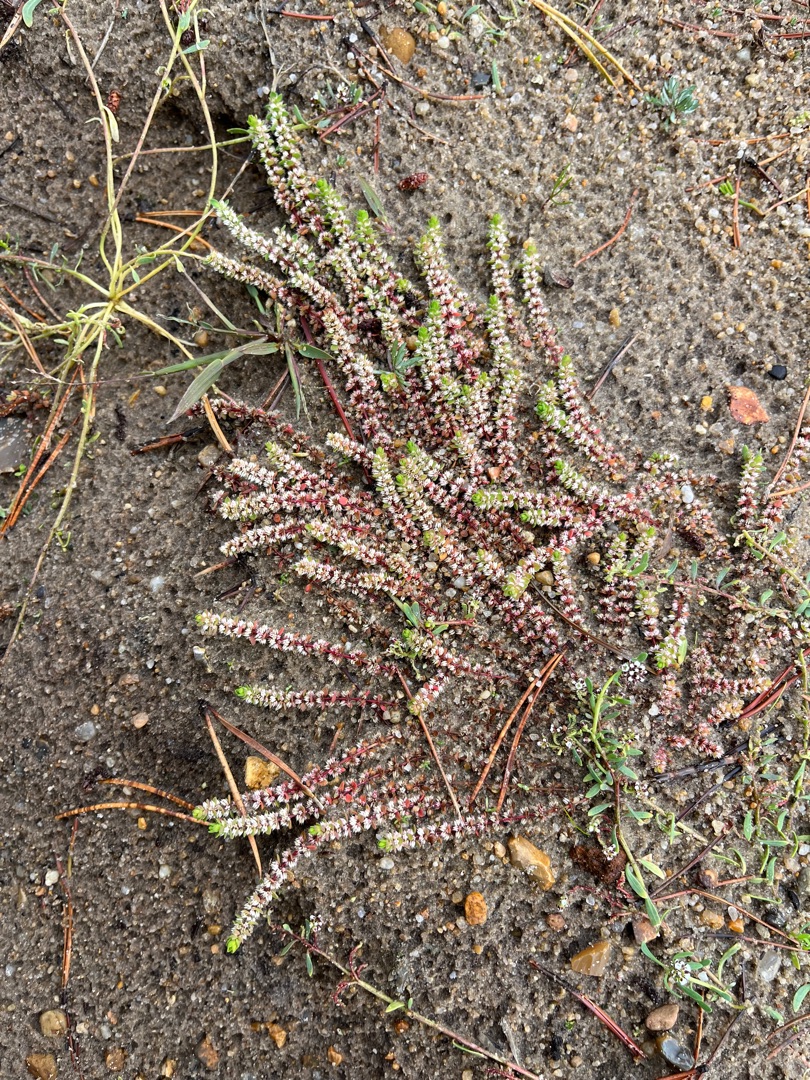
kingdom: Plantae
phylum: Tracheophyta
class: Magnoliopsida
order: Caryophyllales
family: Caryophyllaceae
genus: Illecebrum
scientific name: Illecebrum verticillatum
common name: Bruskbæger
